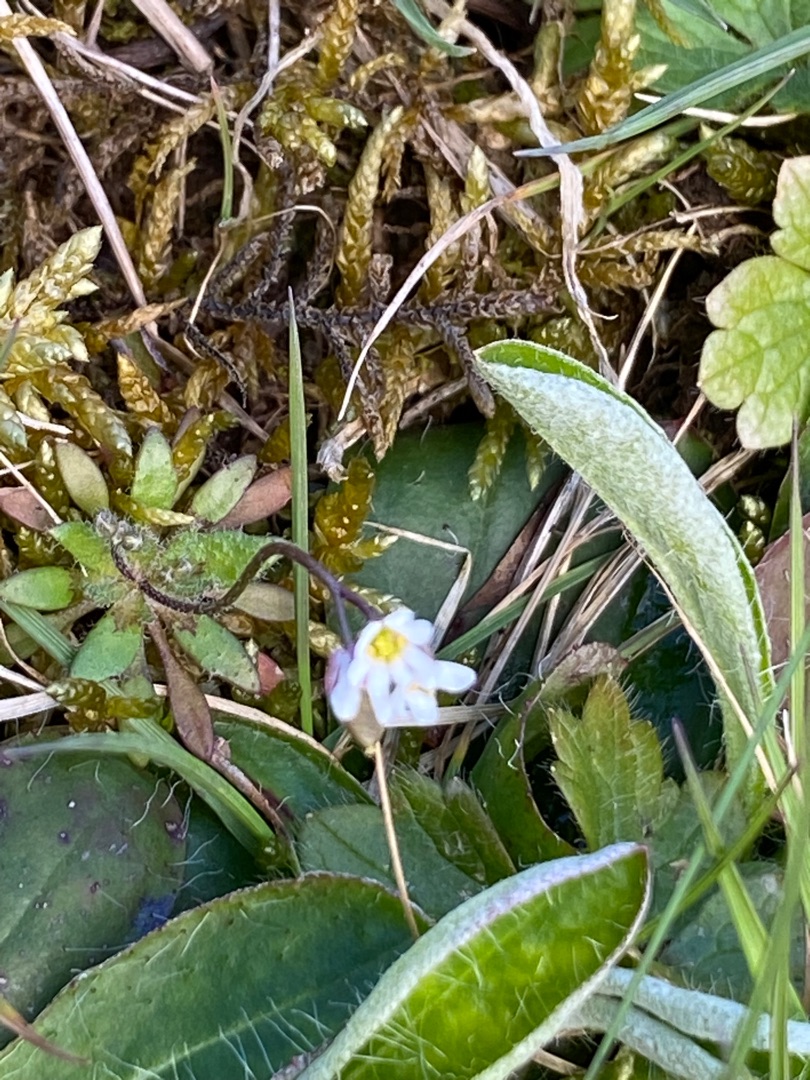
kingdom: Plantae
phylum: Tracheophyta
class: Magnoliopsida
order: Brassicales
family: Brassicaceae
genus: Draba
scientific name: Draba verna
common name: Vår-gæslingeblomst
